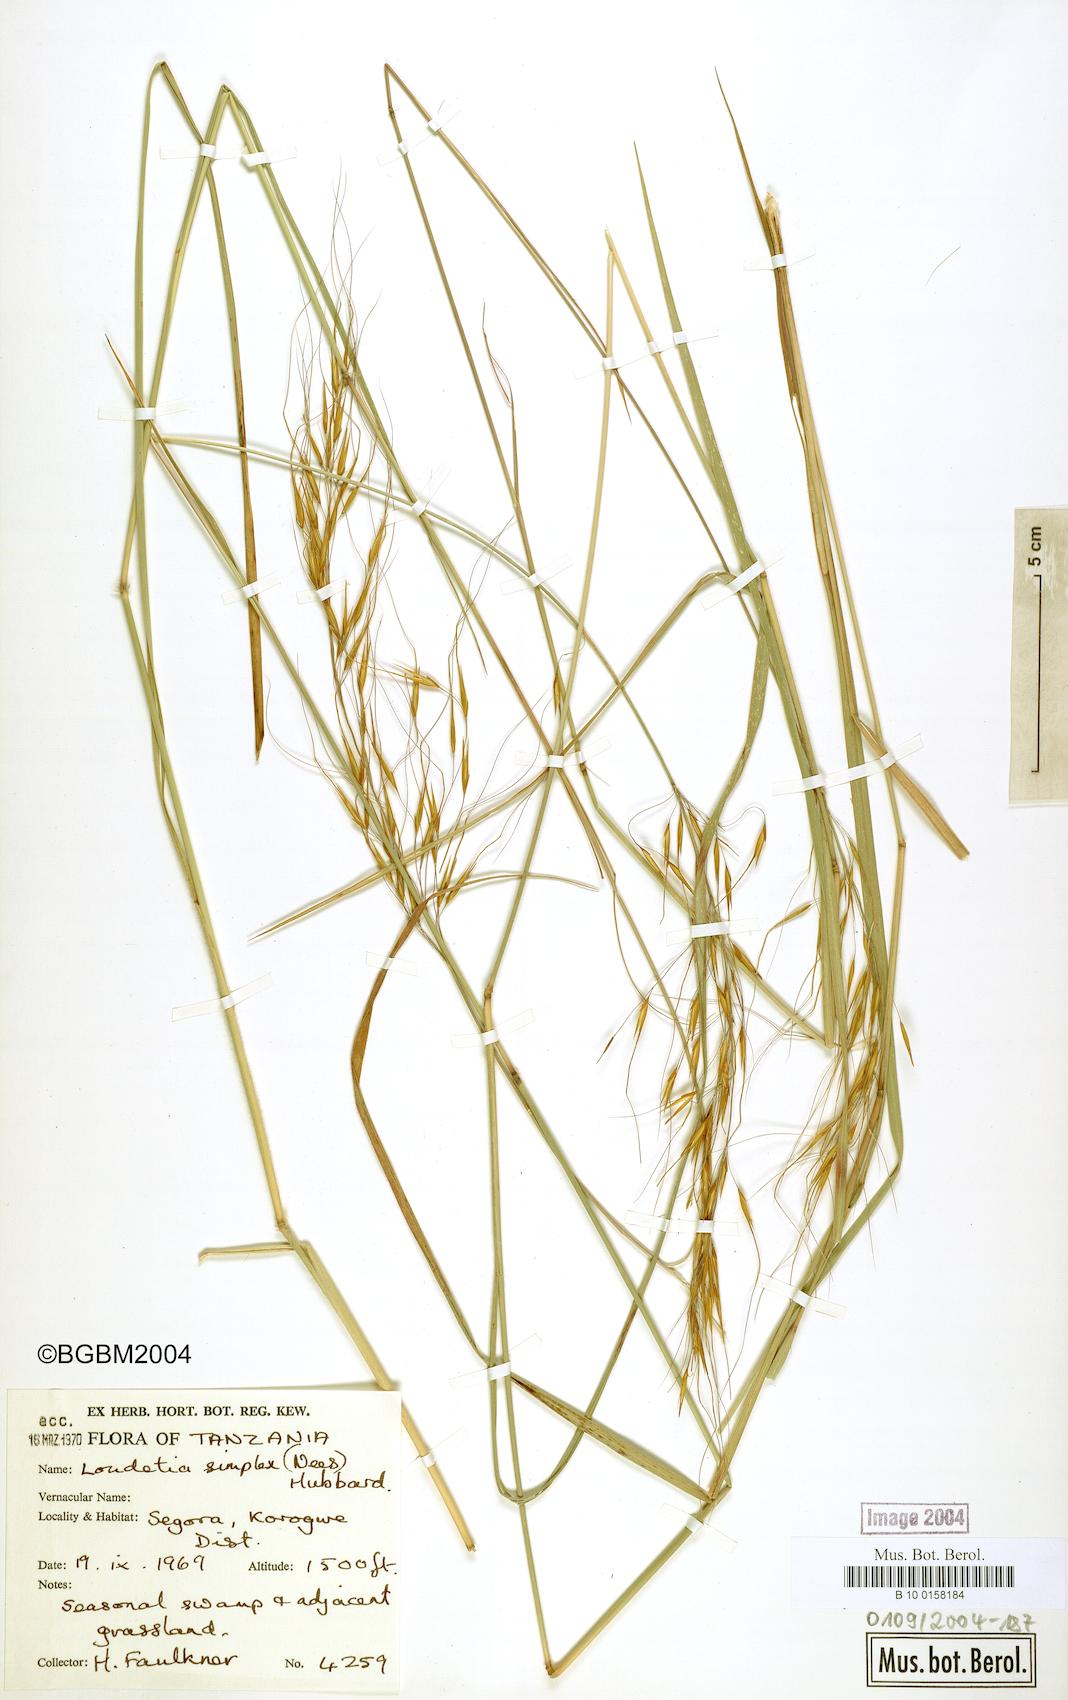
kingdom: Plantae
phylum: Tracheophyta
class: Liliopsida
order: Poales
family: Poaceae
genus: Loudetia
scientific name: Loudetia simplex
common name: Common russet grass
